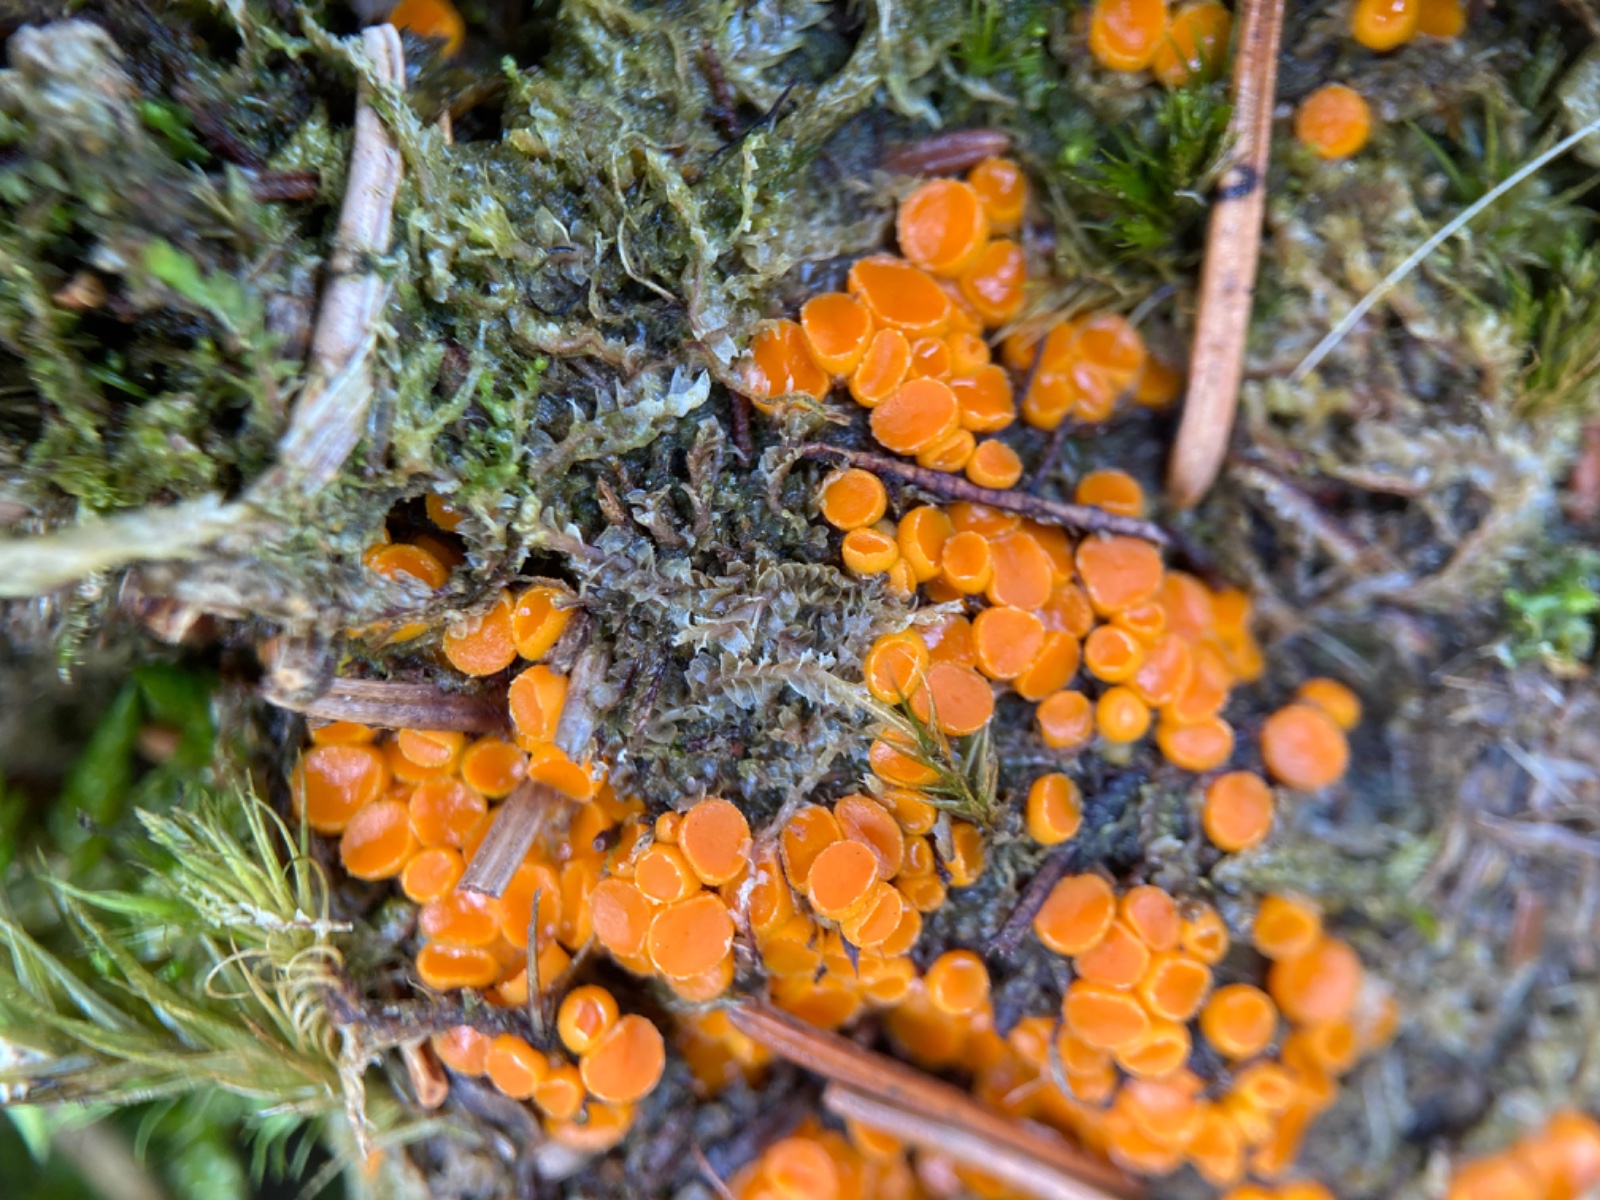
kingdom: Fungi
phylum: Ascomycota
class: Pezizomycetes
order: Pezizales
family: Pyronemataceae
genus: Byssonectria
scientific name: Byssonectria terrestris
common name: hjortebæger
